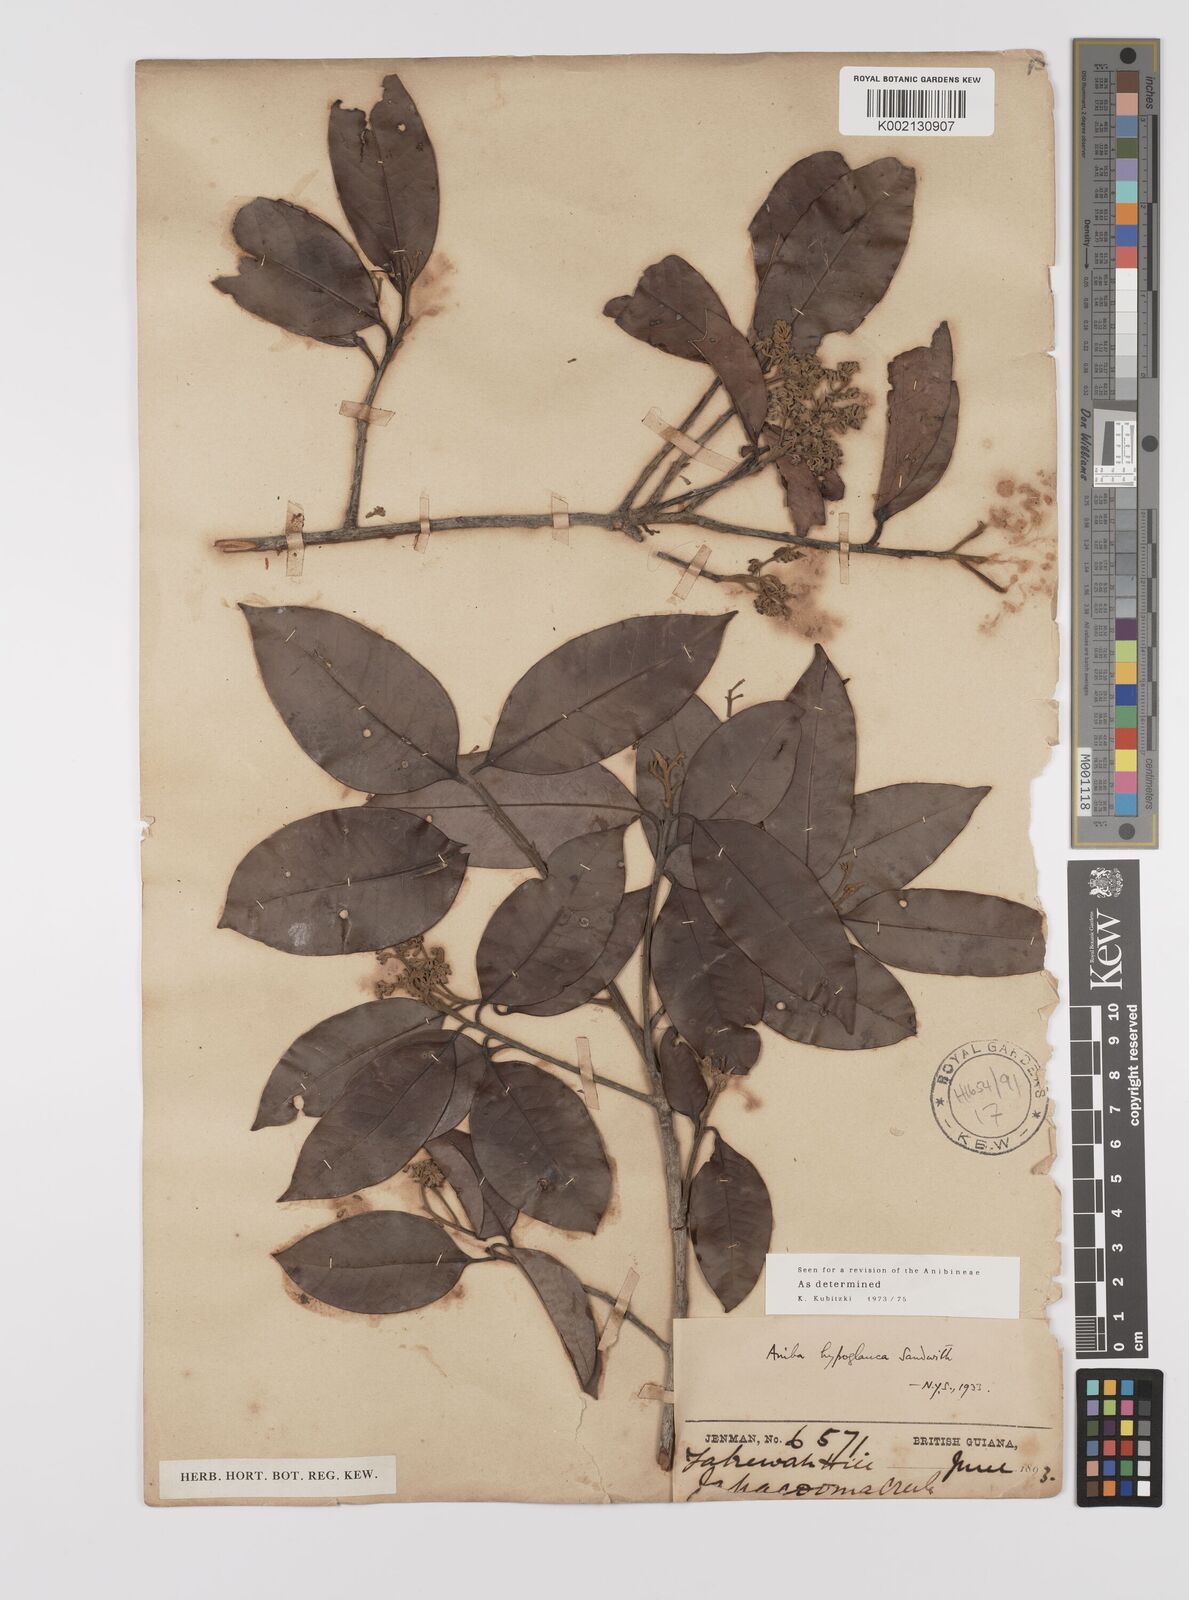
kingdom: Plantae
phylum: Tracheophyta
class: Magnoliopsida
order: Laurales
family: Lauraceae
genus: Aniba
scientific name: Aniba hypoglauca
